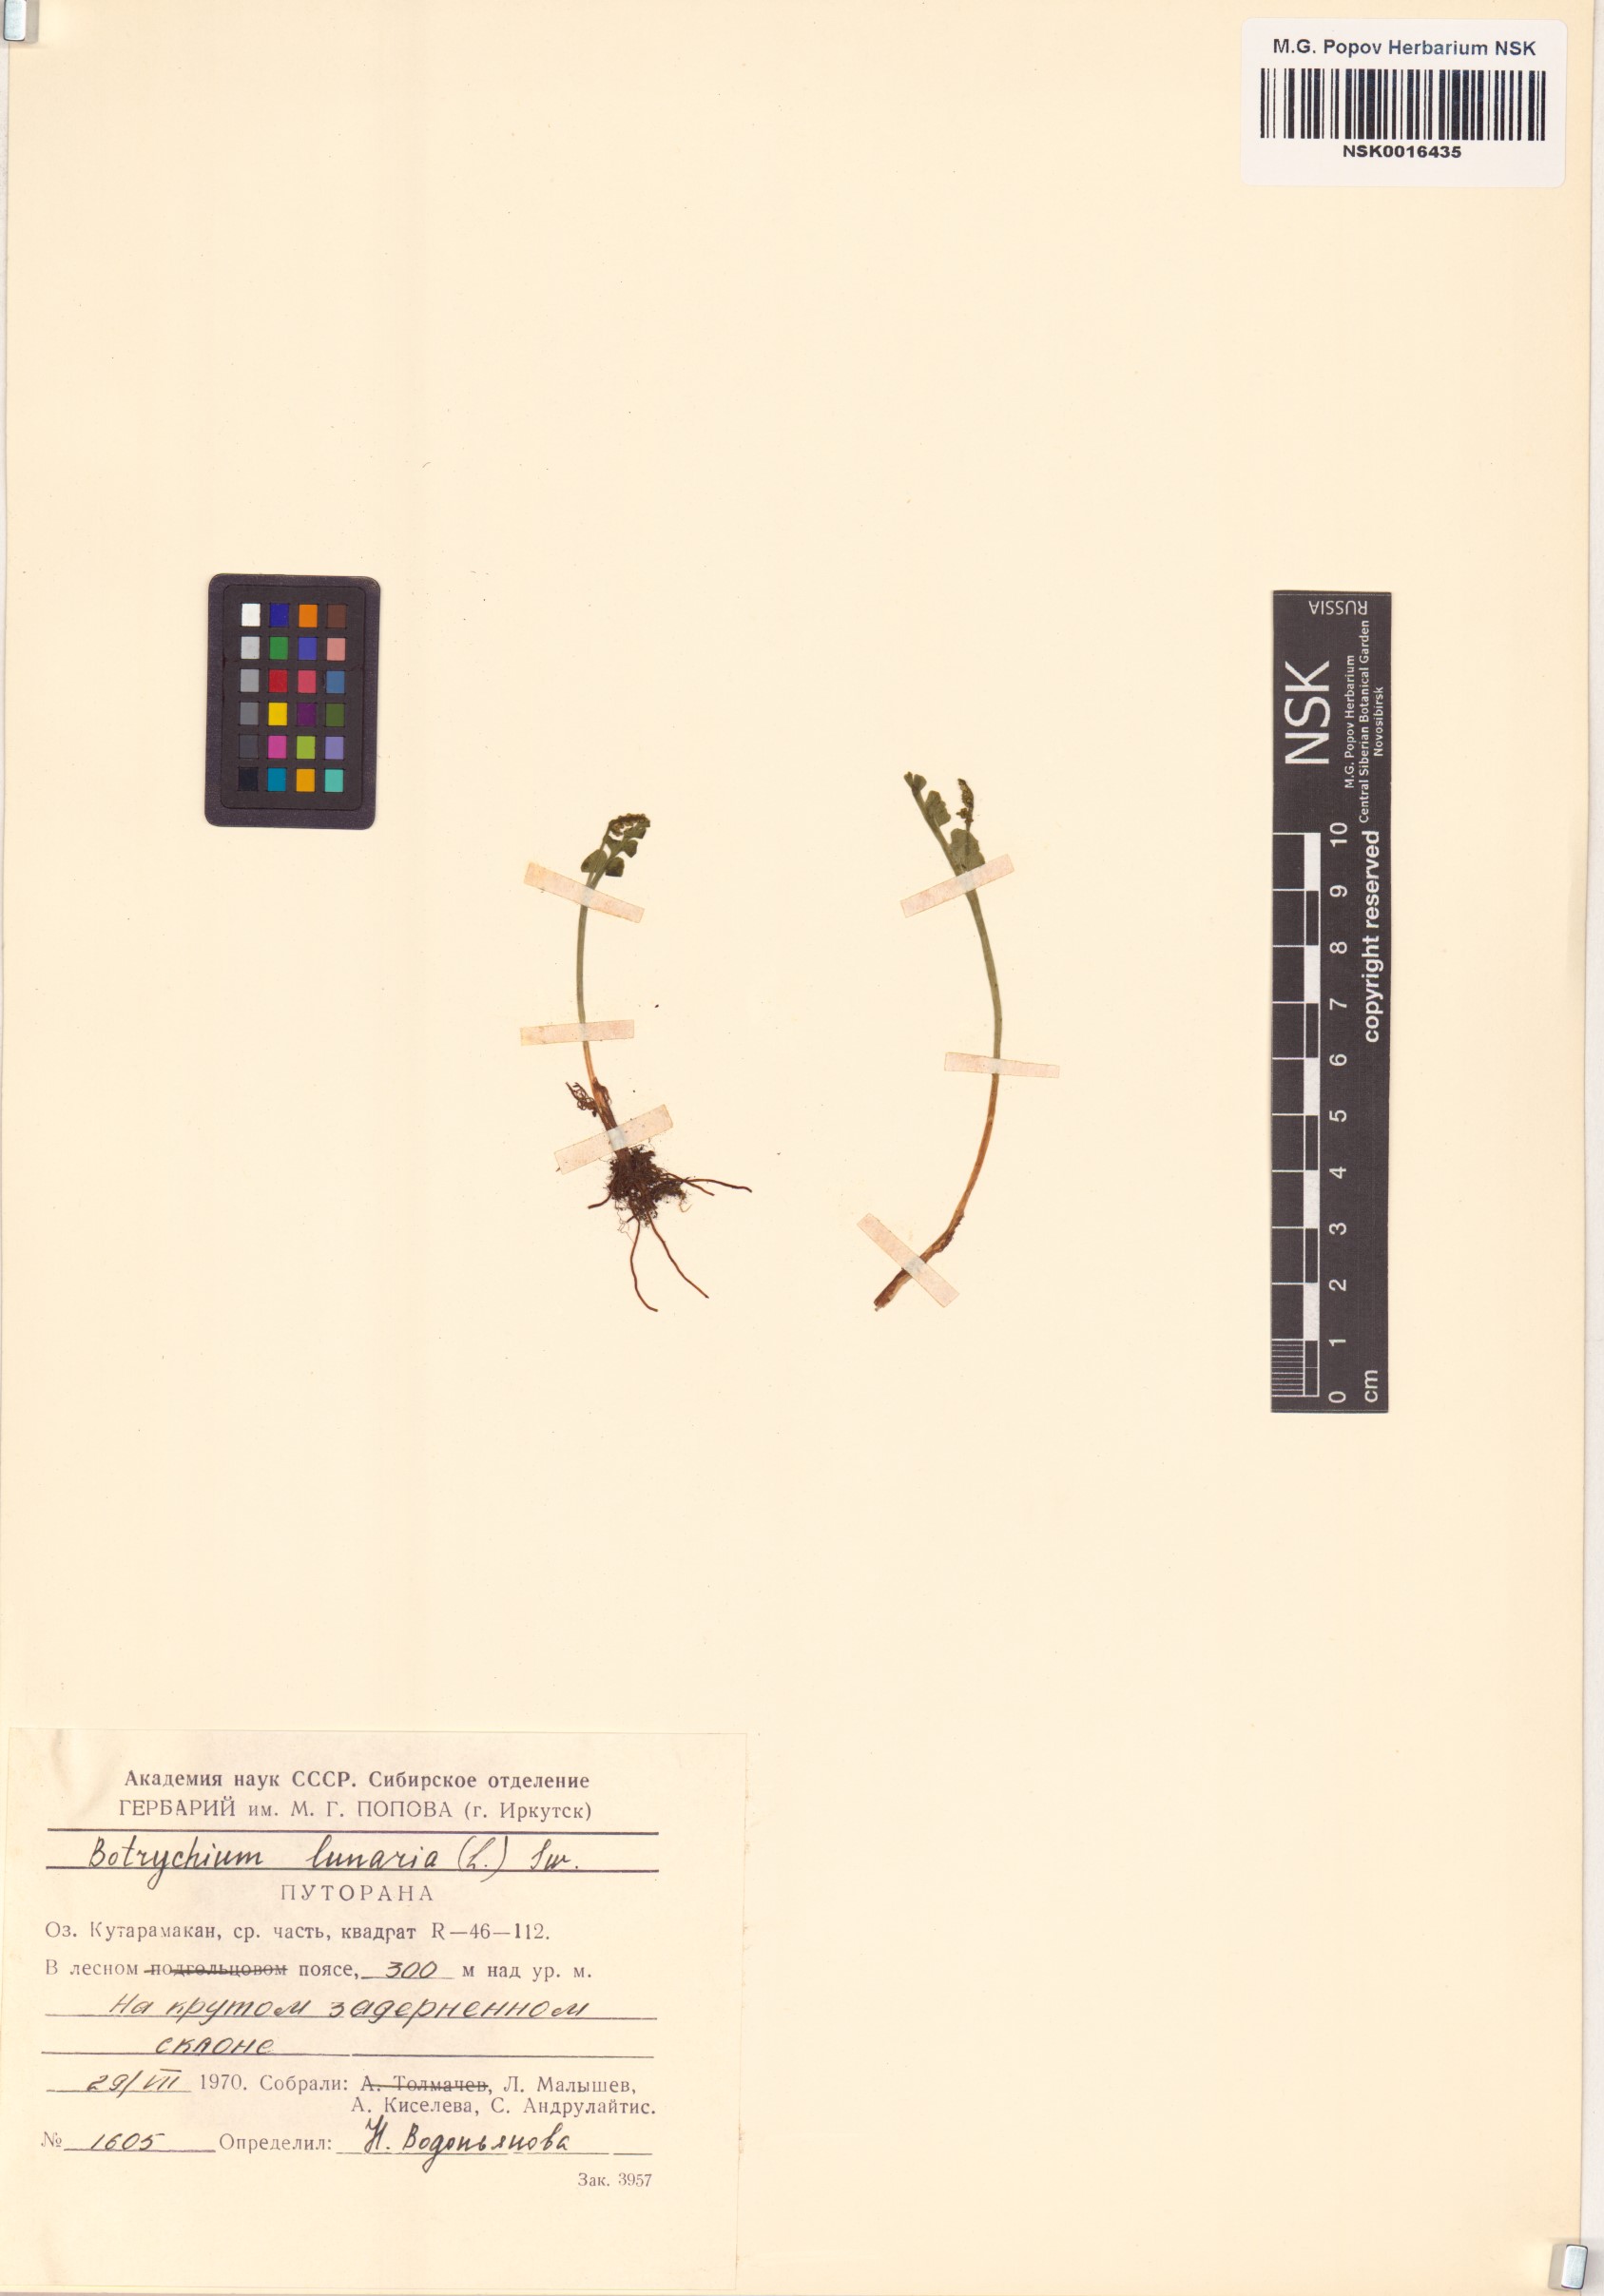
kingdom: Plantae
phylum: Tracheophyta
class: Polypodiopsida
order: Ophioglossales
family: Ophioglossaceae
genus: Botrychium
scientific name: Botrychium lunaria
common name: Moonwort
